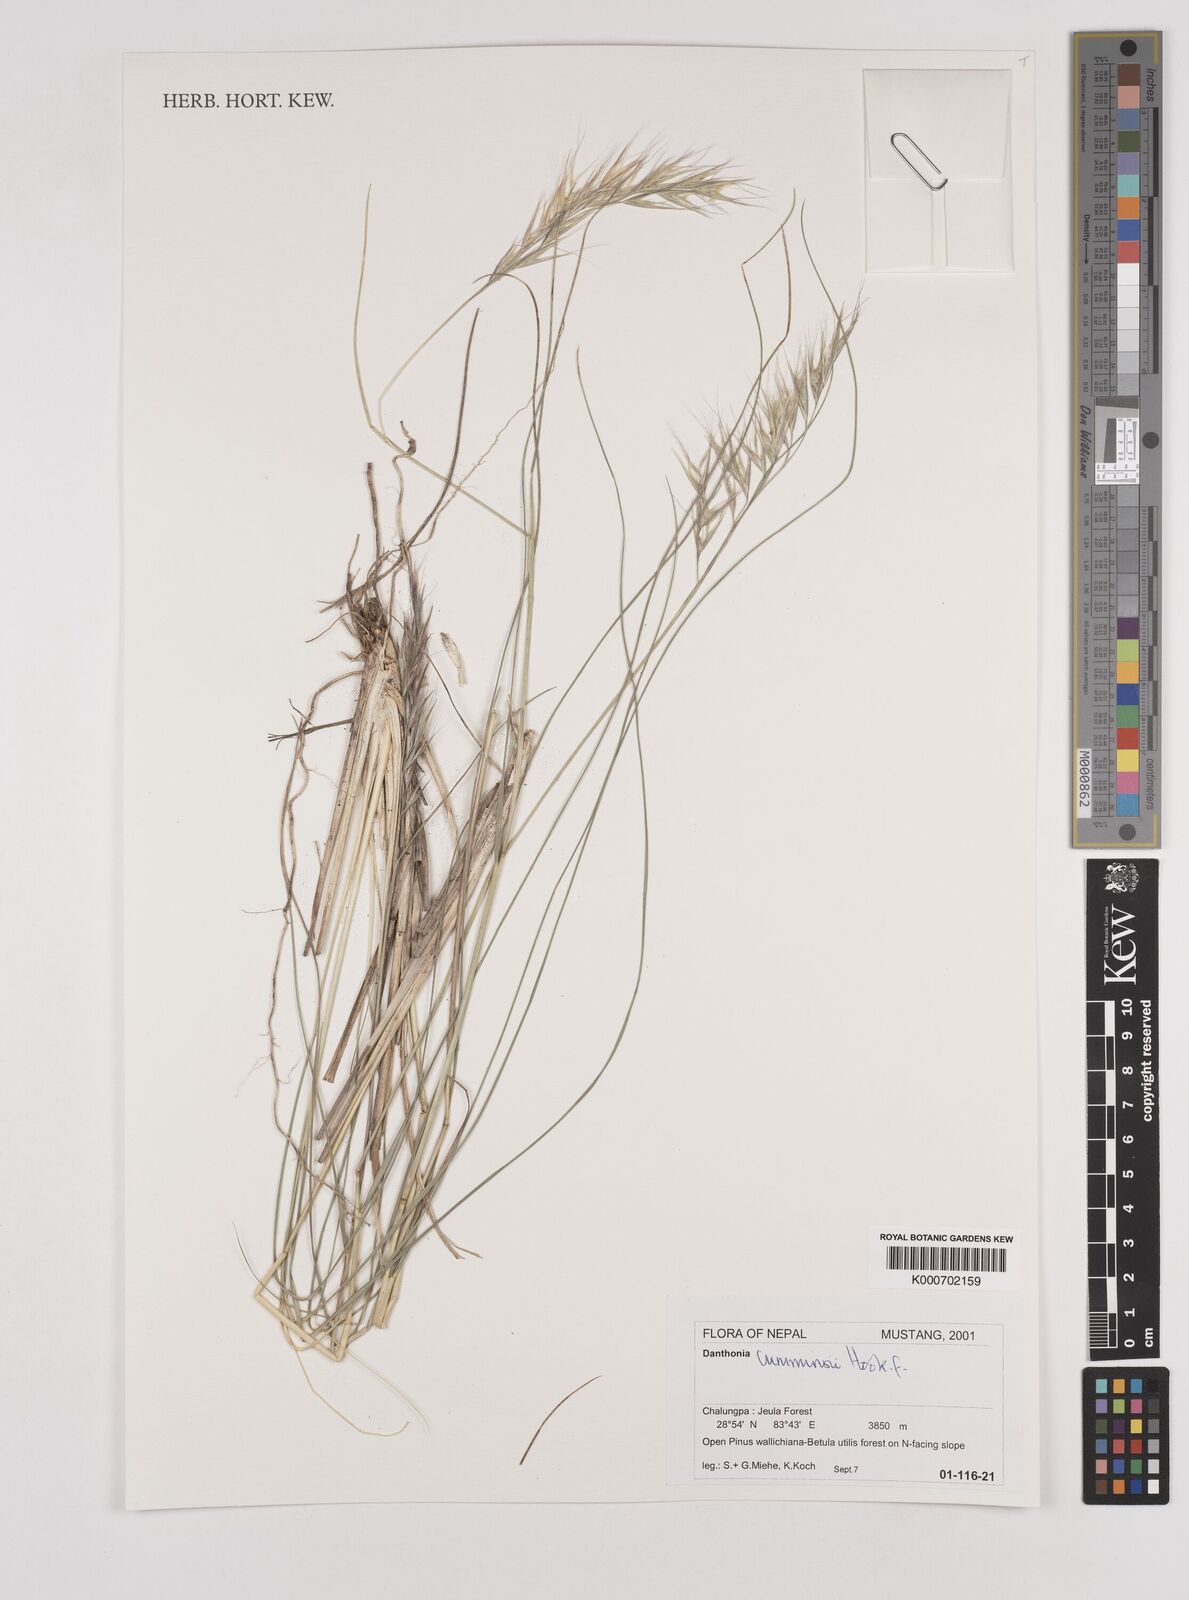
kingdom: Plantae
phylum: Tracheophyta
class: Liliopsida
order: Poales
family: Poaceae
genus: Tenaxia
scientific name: Tenaxia cumminsii
